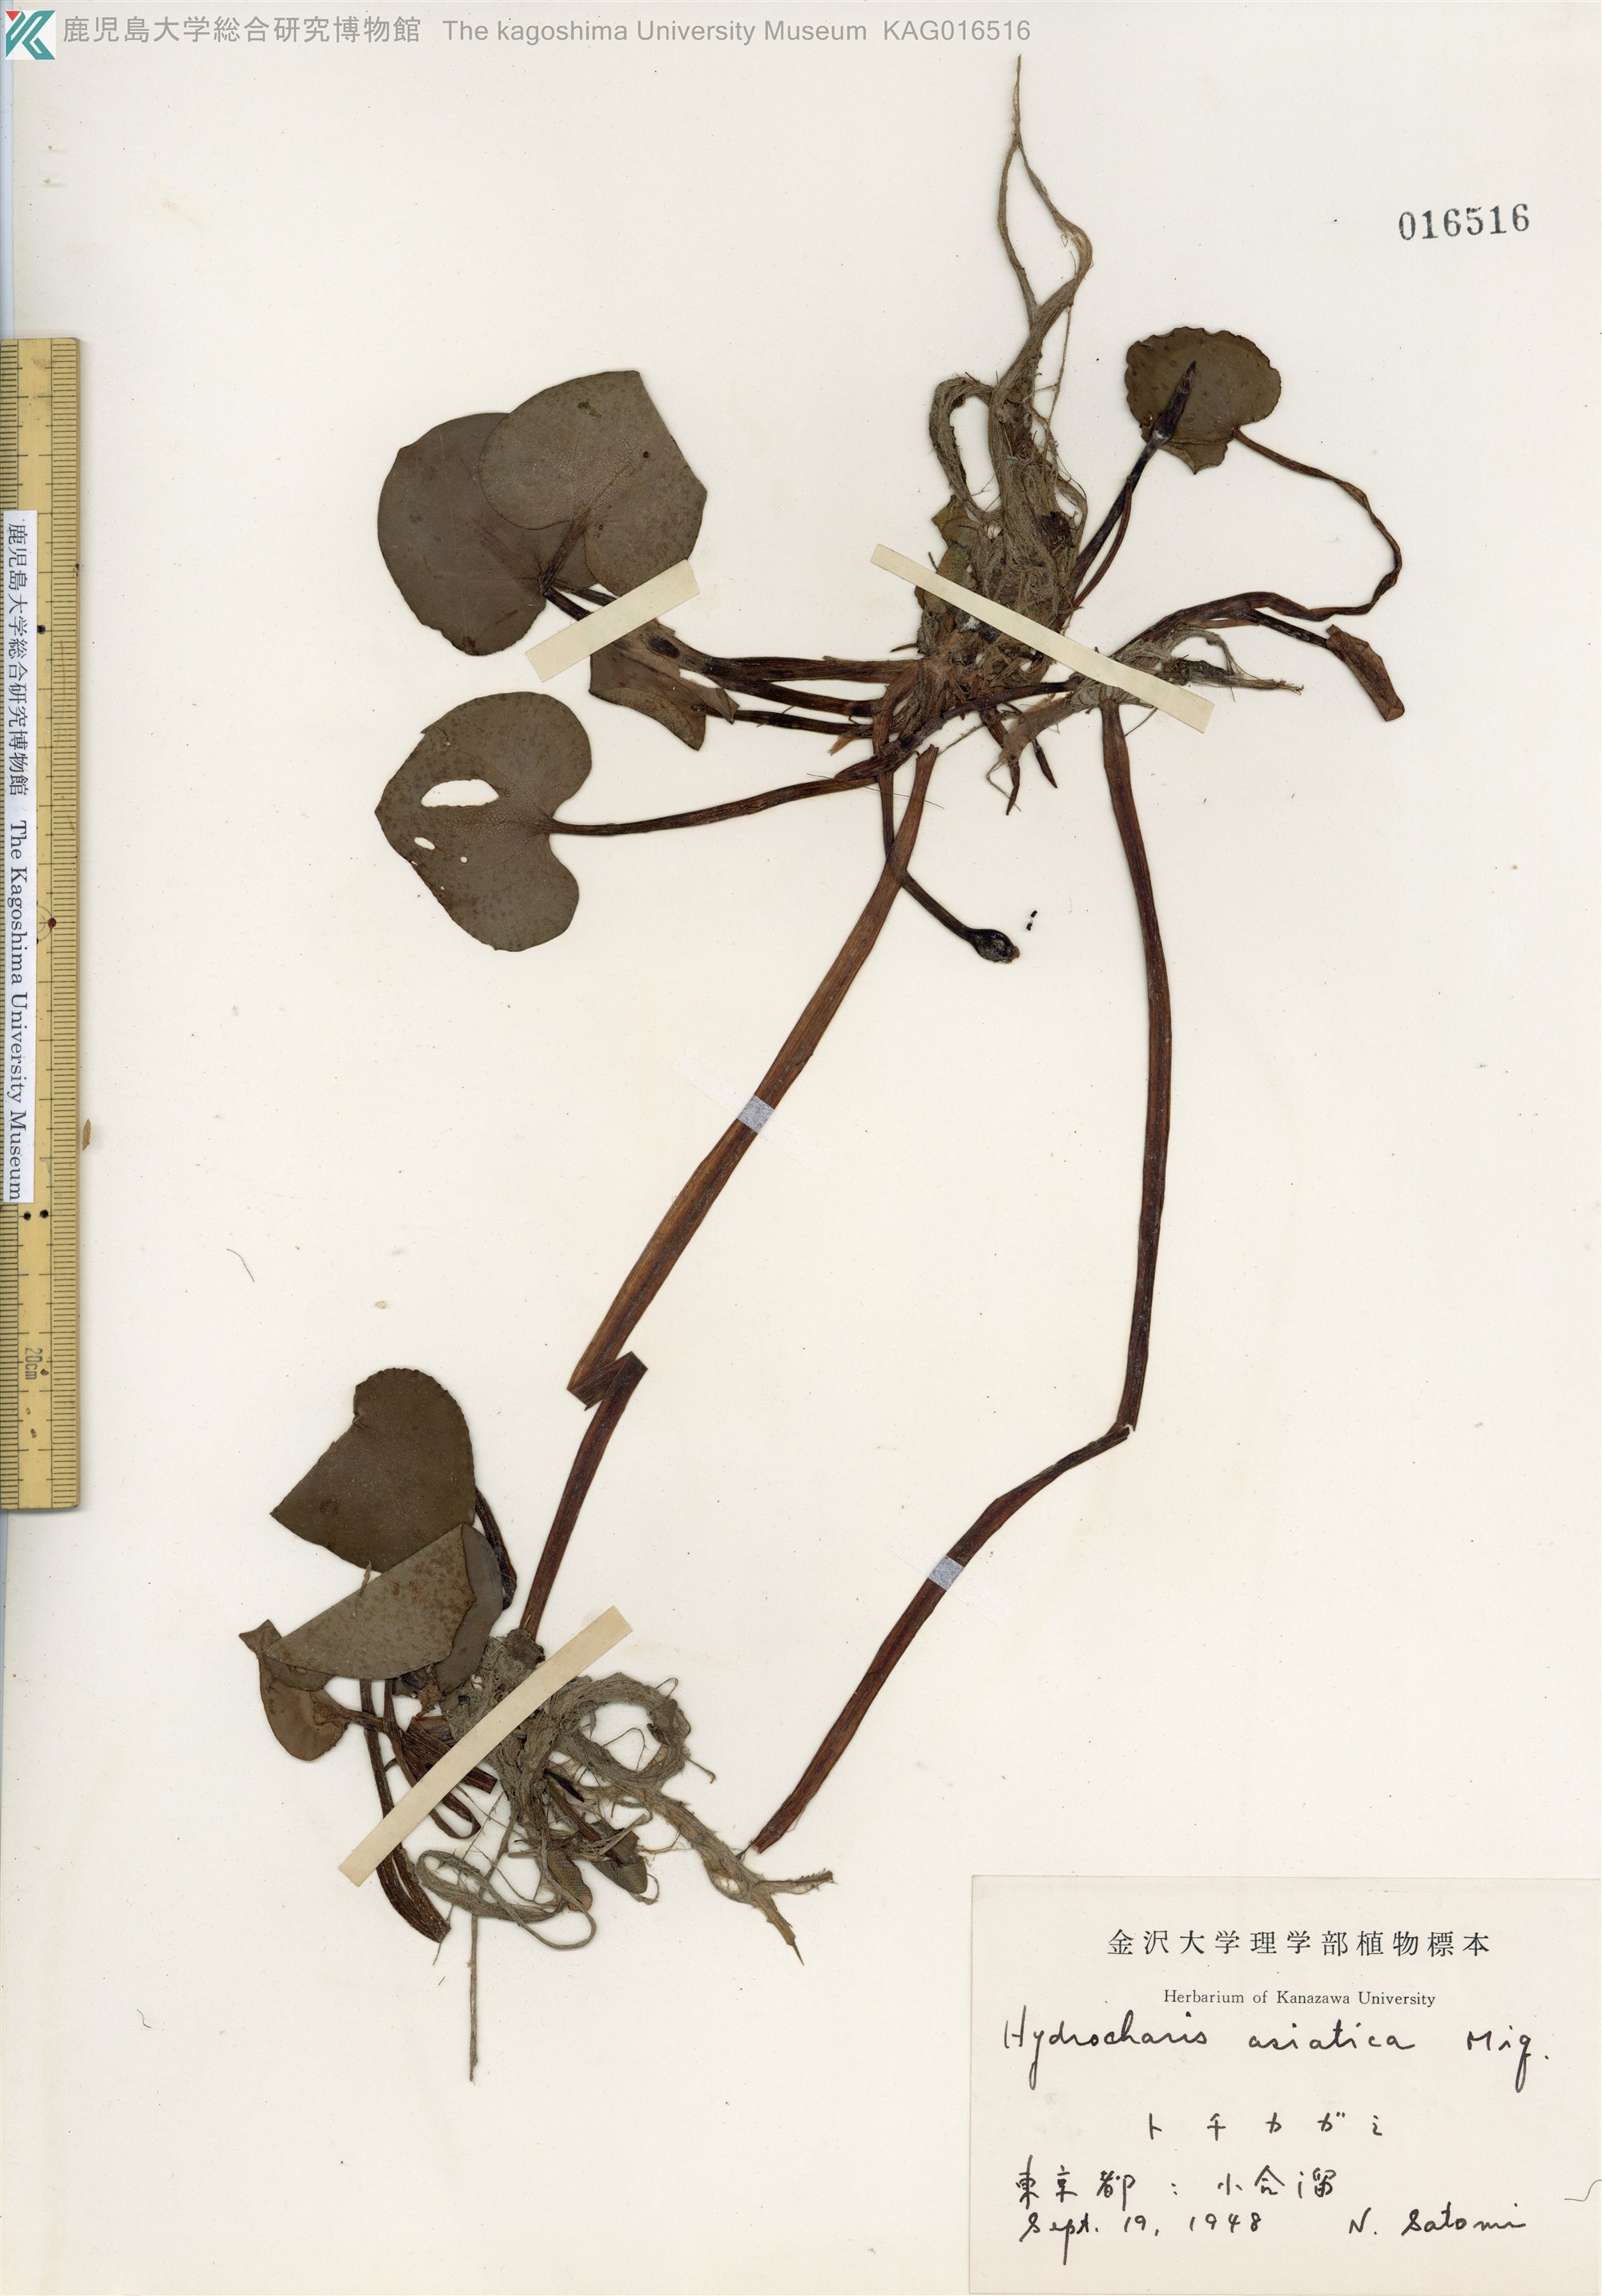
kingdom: Plantae
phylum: Tracheophyta
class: Liliopsida
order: Alismatales
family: Hydrocharitaceae
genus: Hydrocharis
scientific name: Hydrocharis dubia
